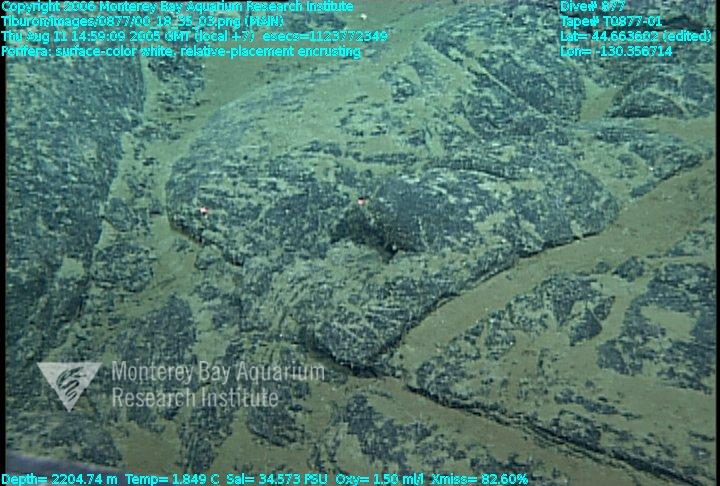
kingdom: Animalia
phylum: Porifera
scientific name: Porifera
